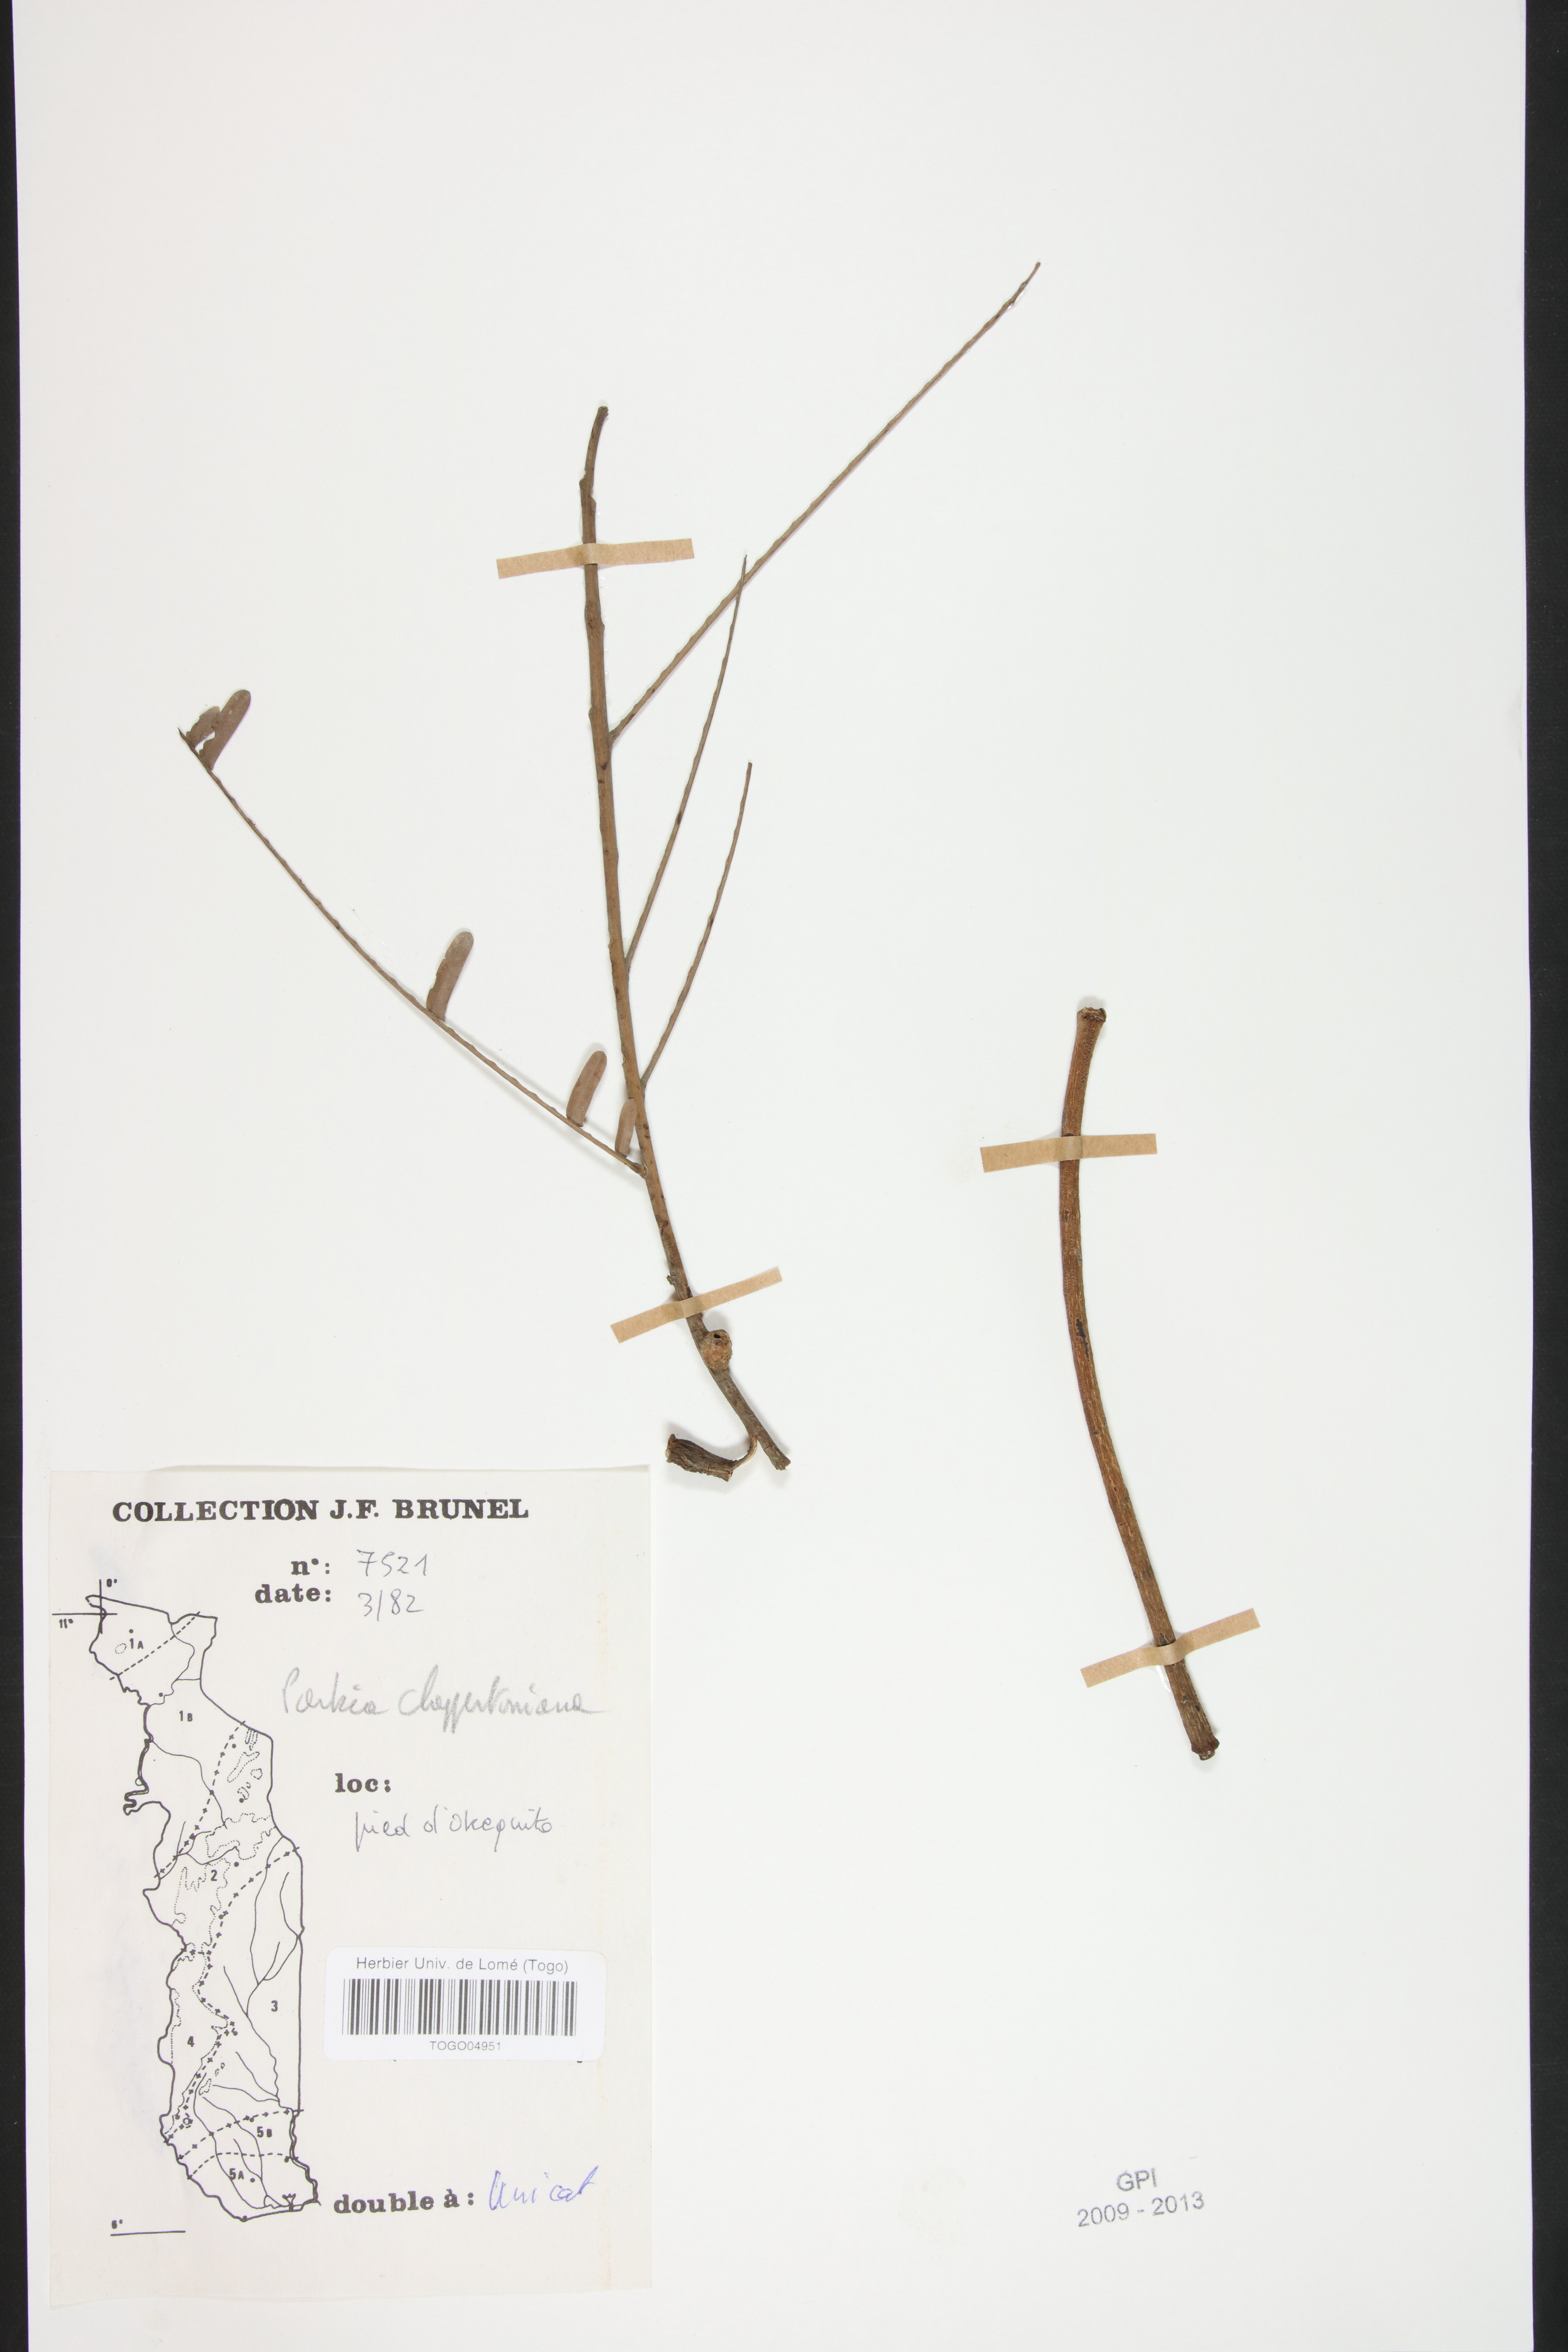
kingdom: Plantae
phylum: Tracheophyta
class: Magnoliopsida
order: Fabales
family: Fabaceae
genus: Parkia
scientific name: Parkia biglobosa
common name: African locust-bean
